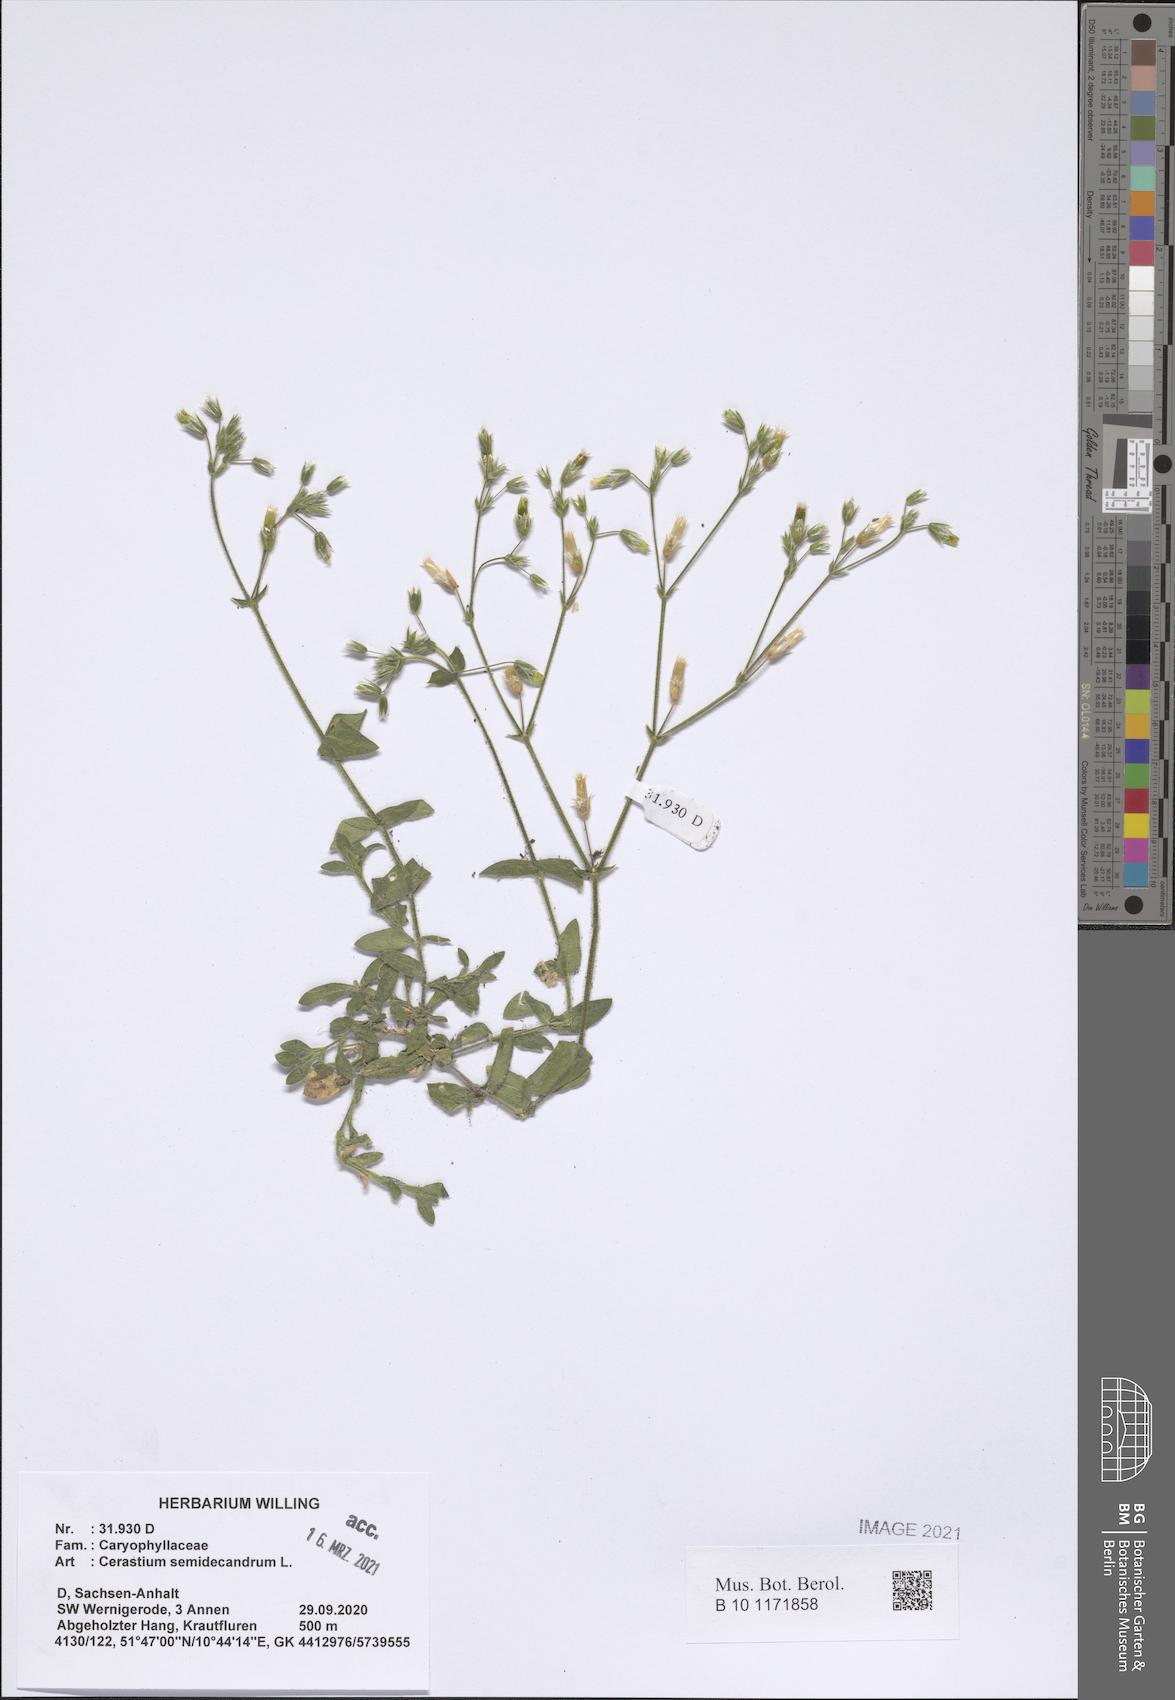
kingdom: Plantae
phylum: Tracheophyta
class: Magnoliopsida
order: Caryophyllales
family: Caryophyllaceae
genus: Cerastium
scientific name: Cerastium semidecandrum
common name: Little mouse-ear
